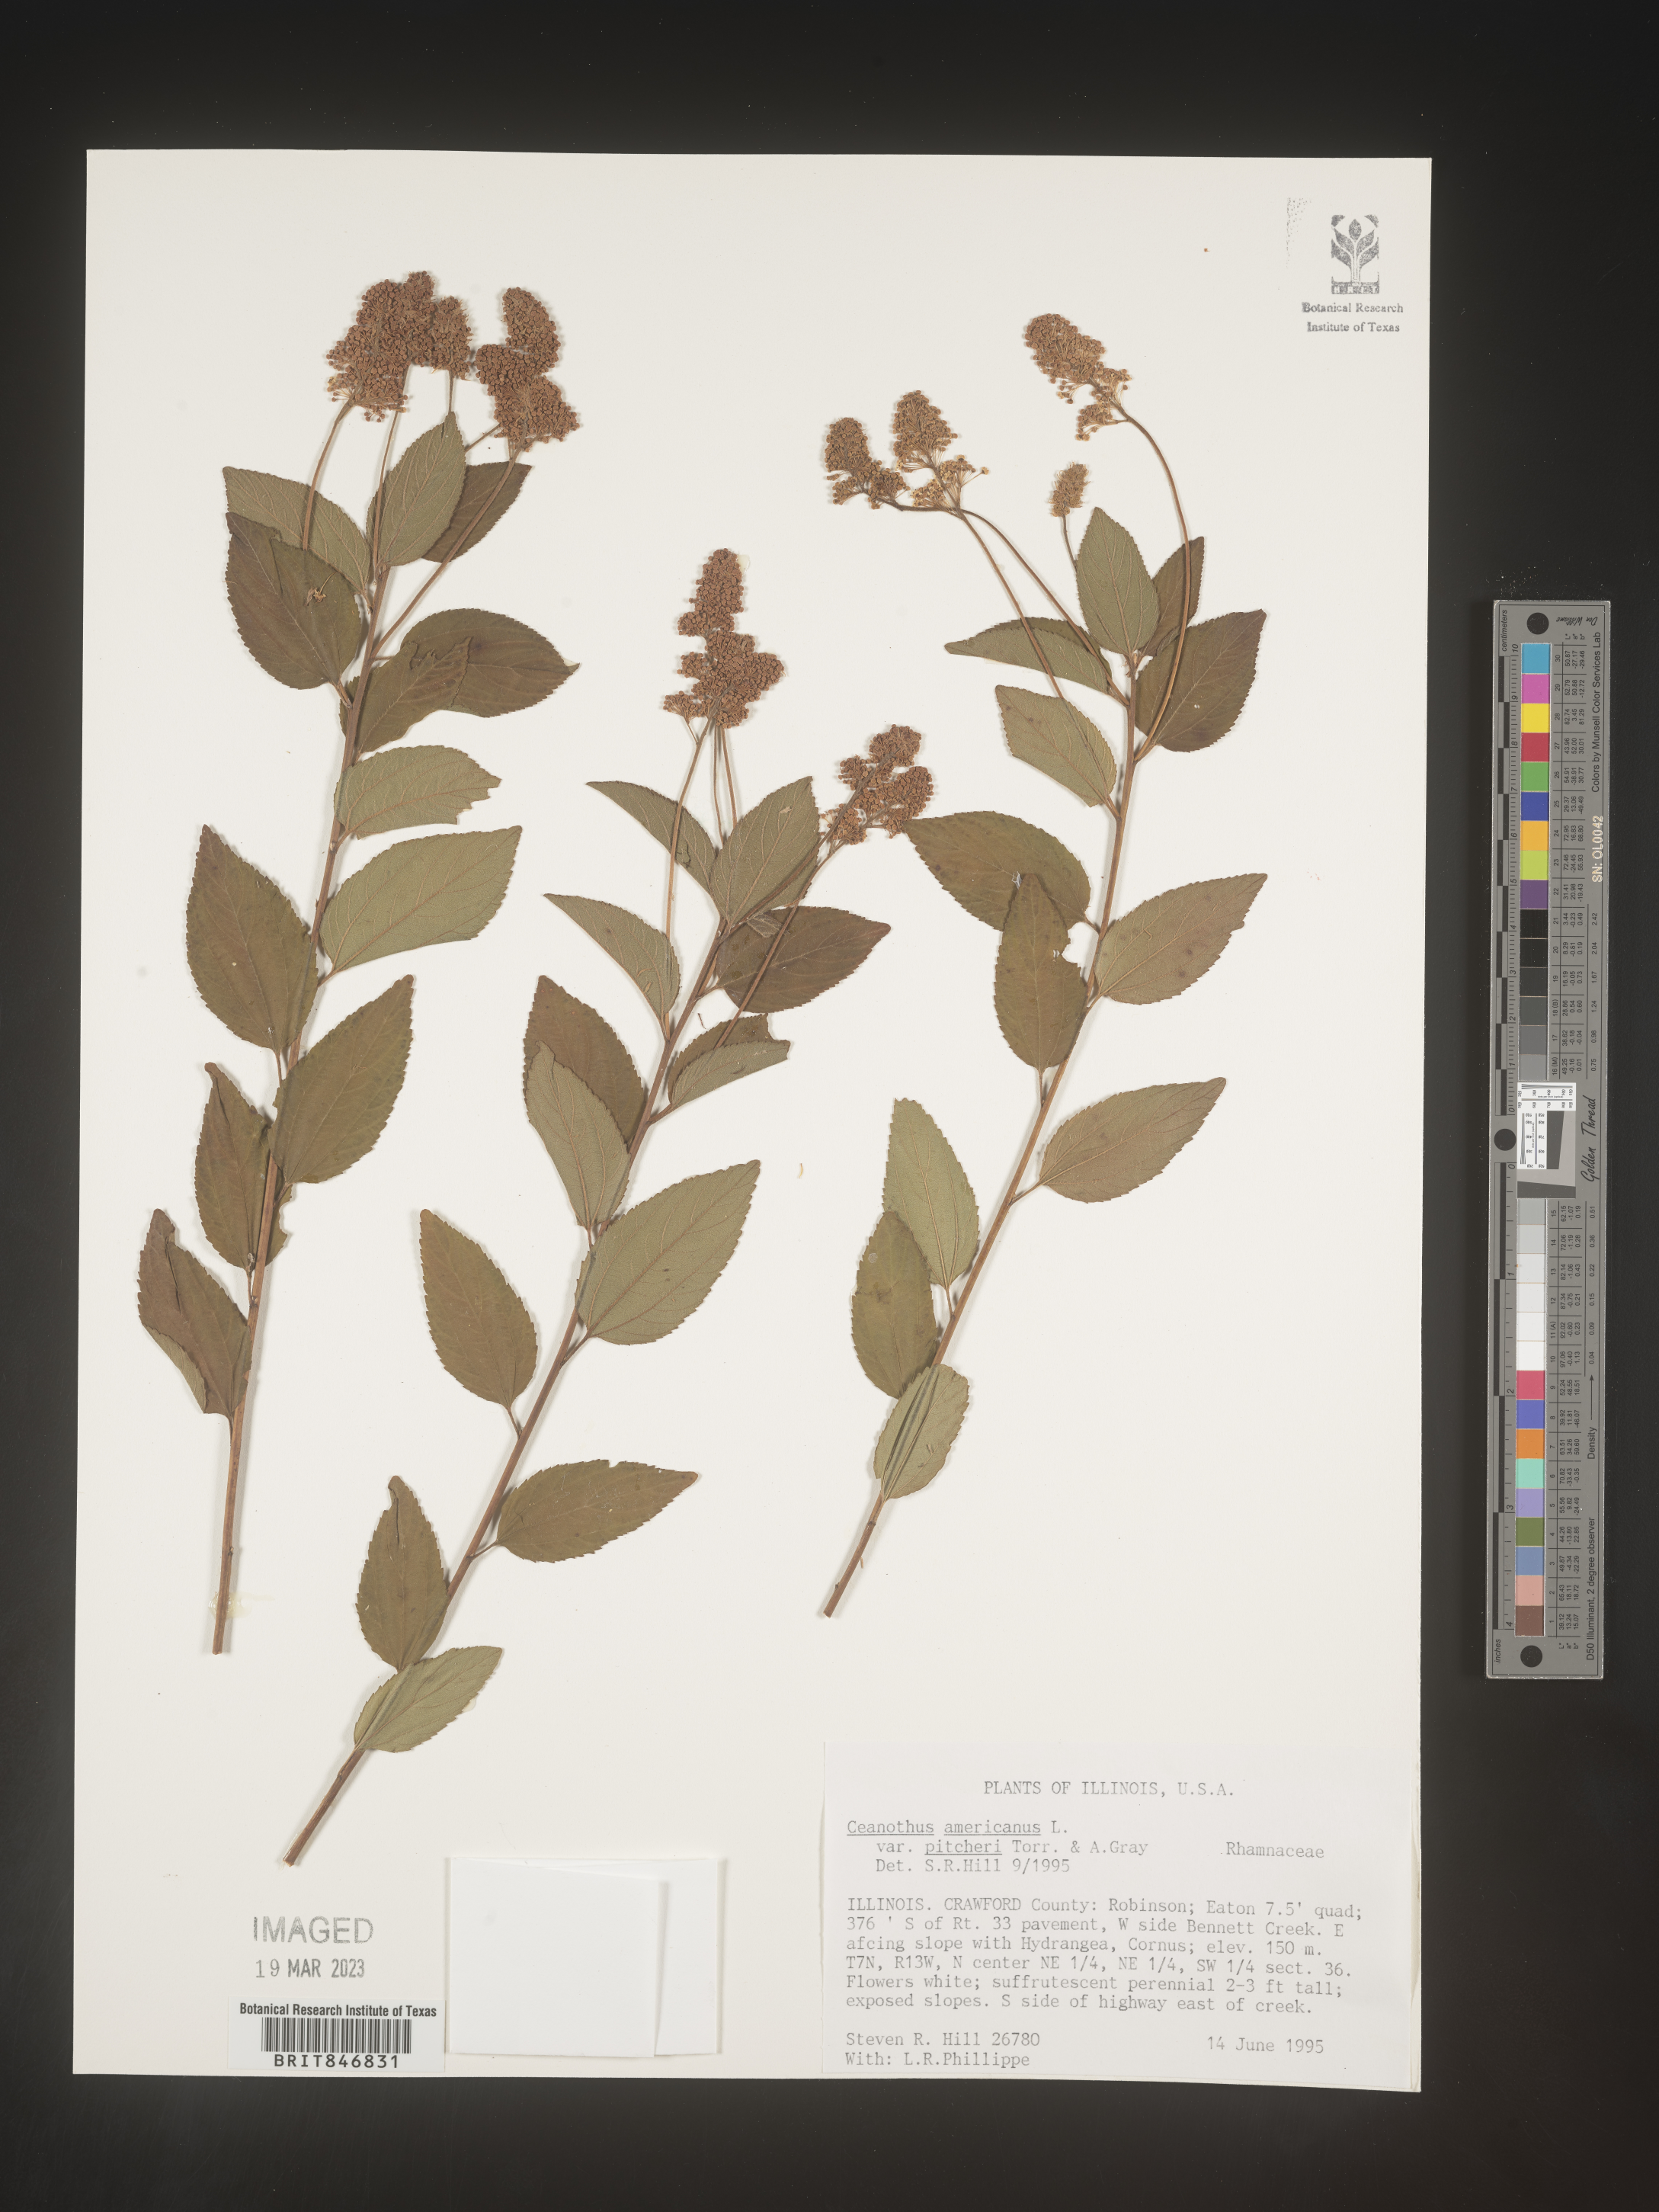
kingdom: Plantae
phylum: Tracheophyta
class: Magnoliopsida
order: Rosales
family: Rhamnaceae
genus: Ceanothus
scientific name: Ceanothus americanus
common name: Redroot
